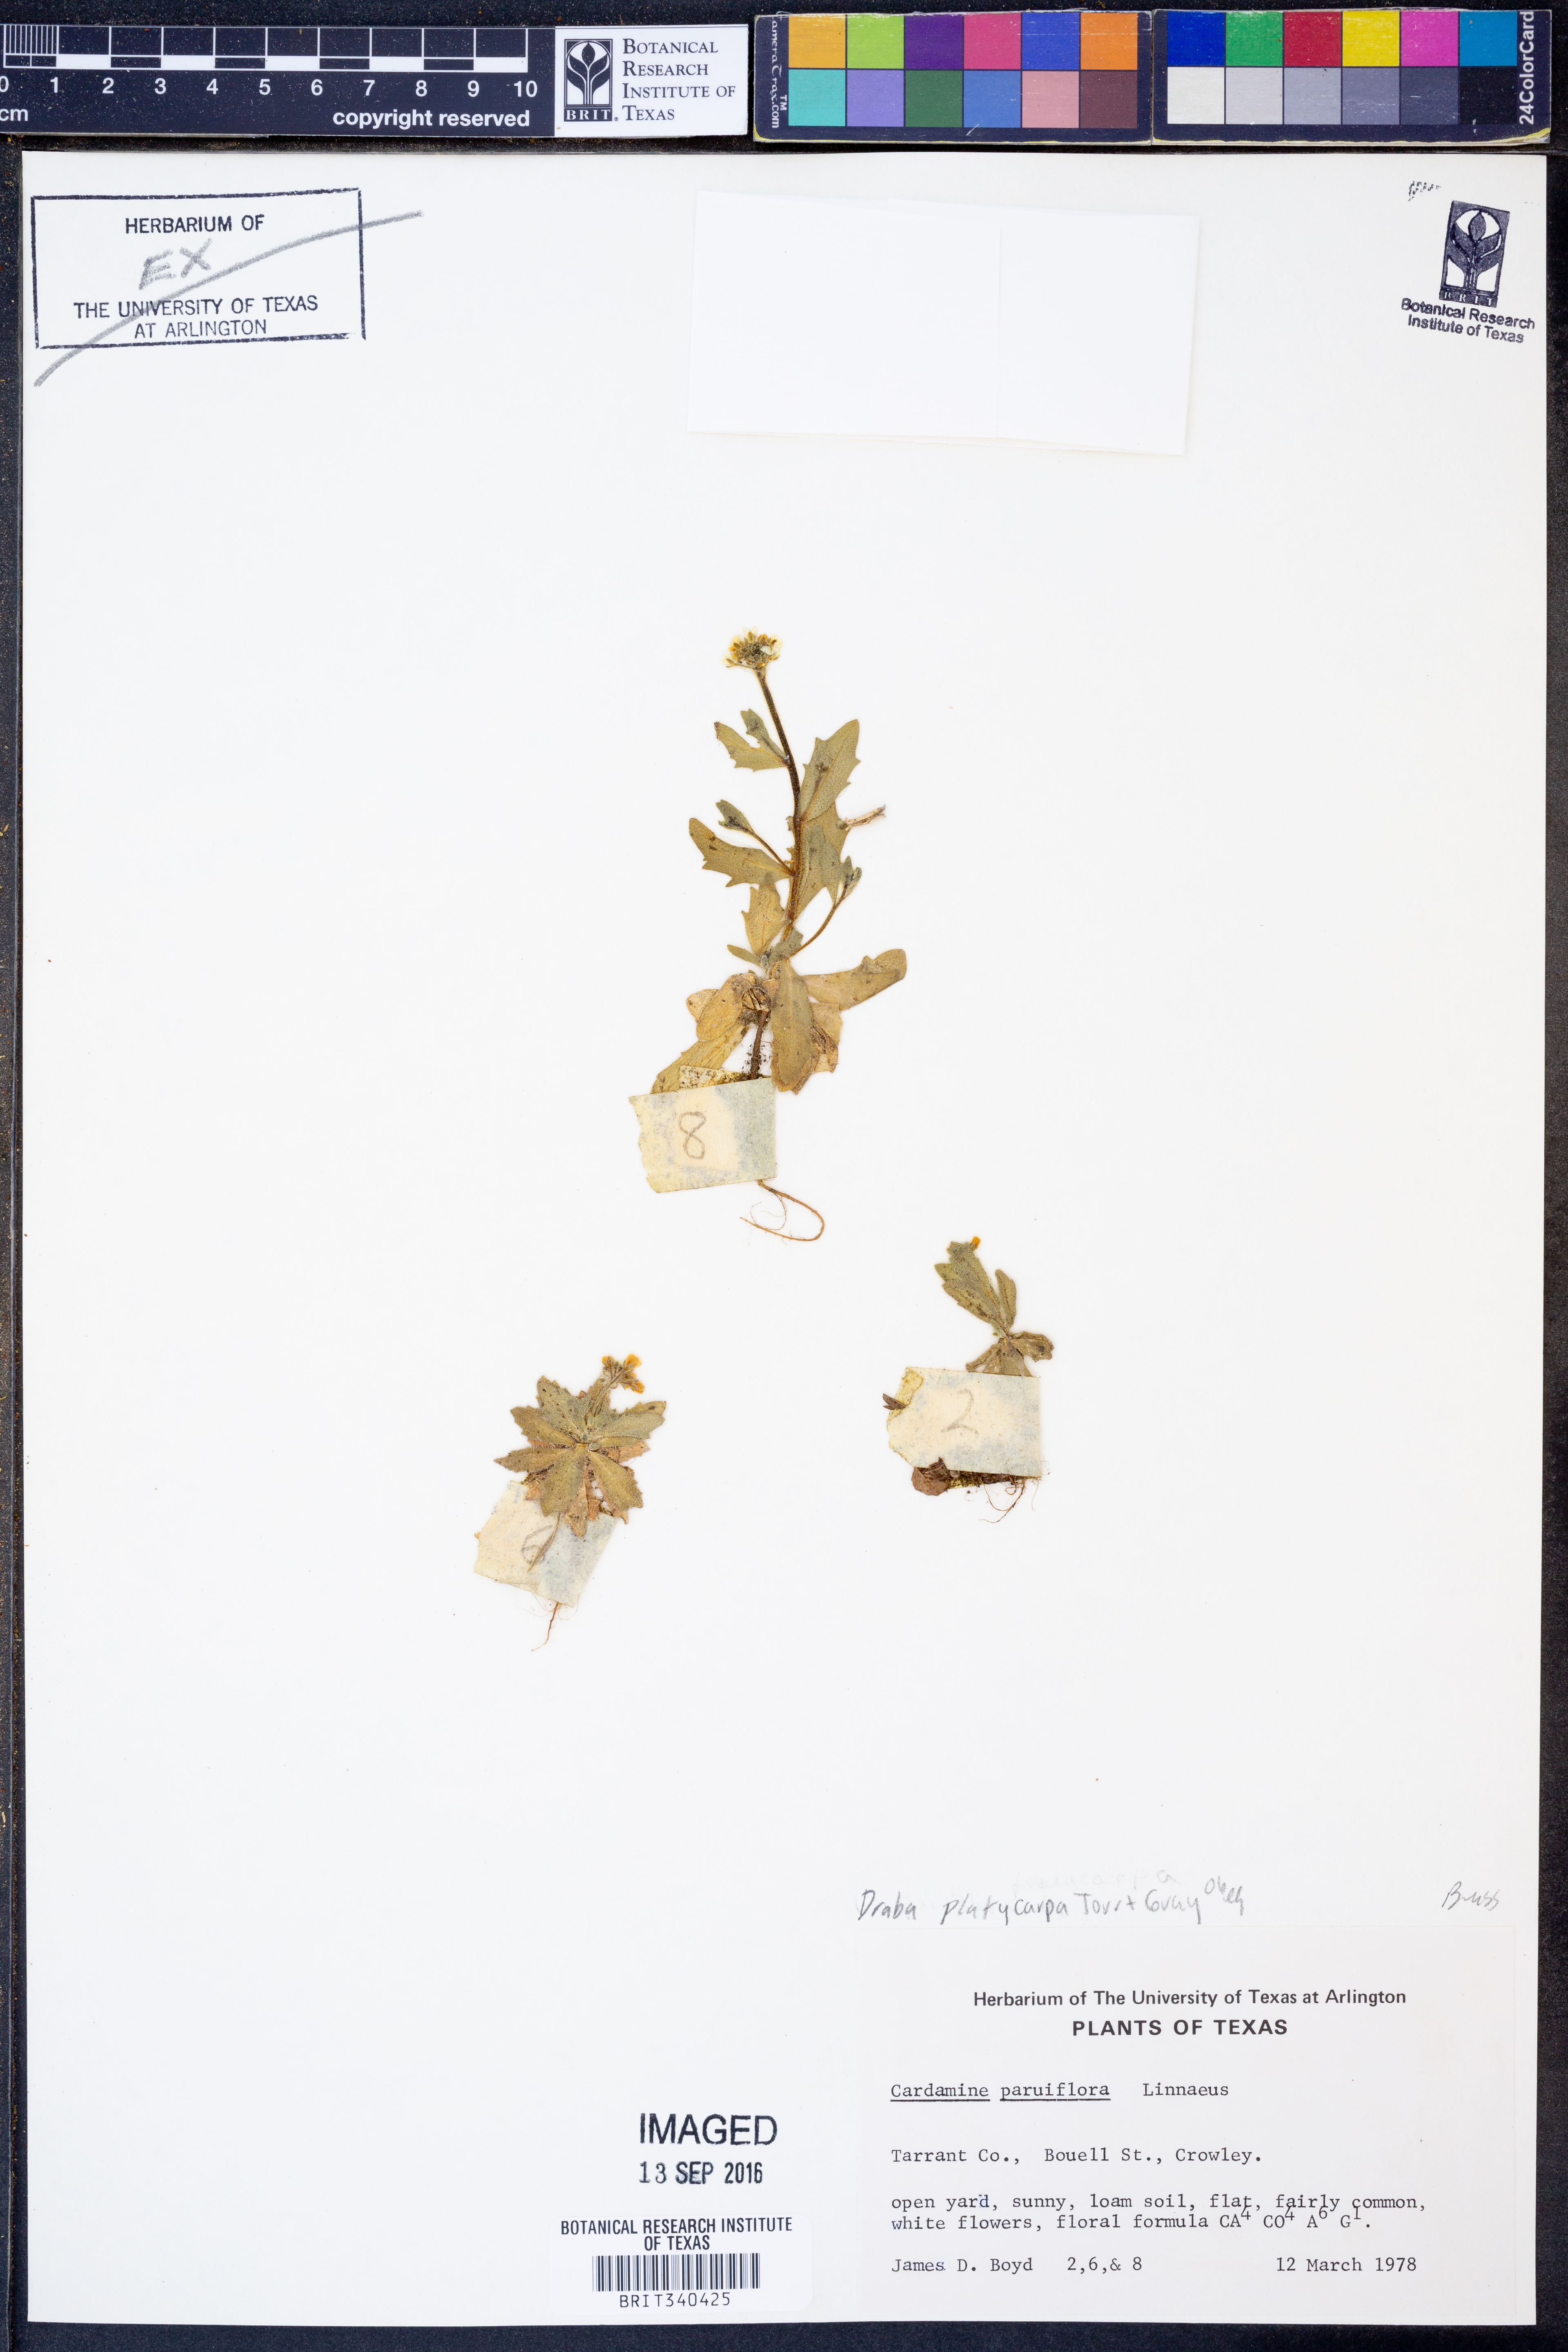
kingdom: Plantae
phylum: Tracheophyta
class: Magnoliopsida
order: Brassicales
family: Brassicaceae
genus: Tomostima
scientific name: Tomostima platycarpa
